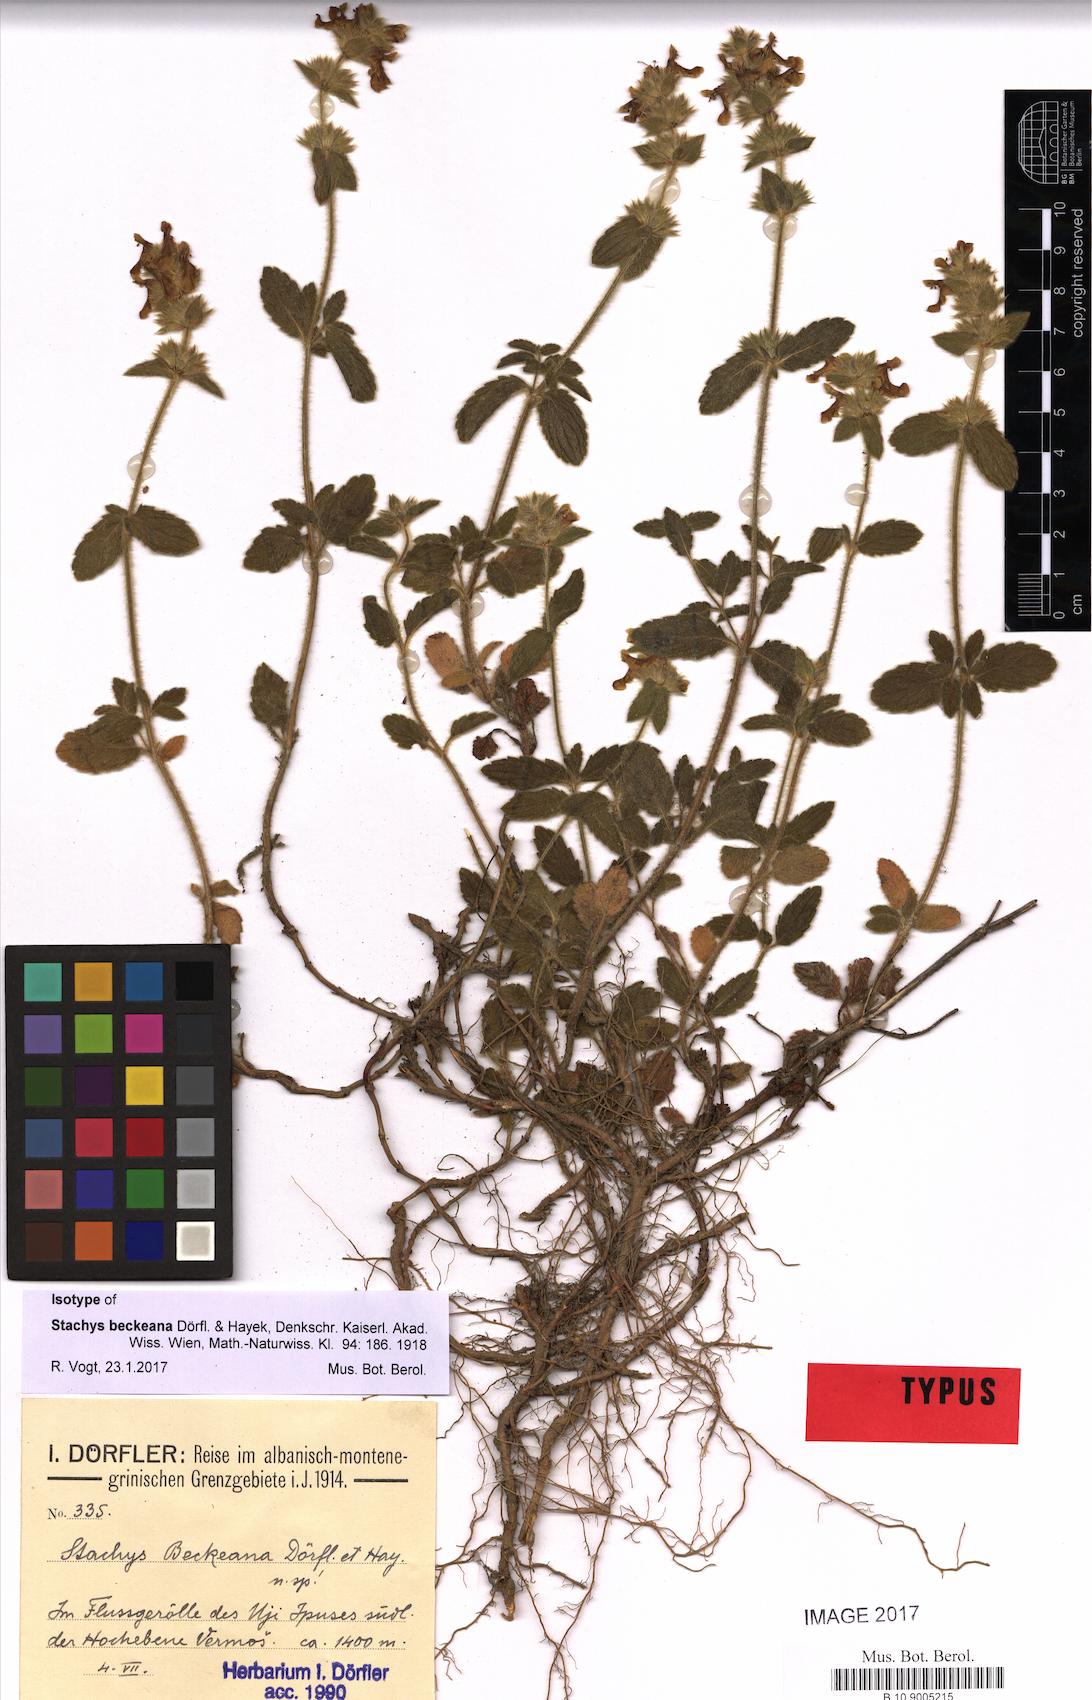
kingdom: Plantae
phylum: Tracheophyta
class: Magnoliopsida
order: Lamiales
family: Lamiaceae
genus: Stachys
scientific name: Stachys beckeana
